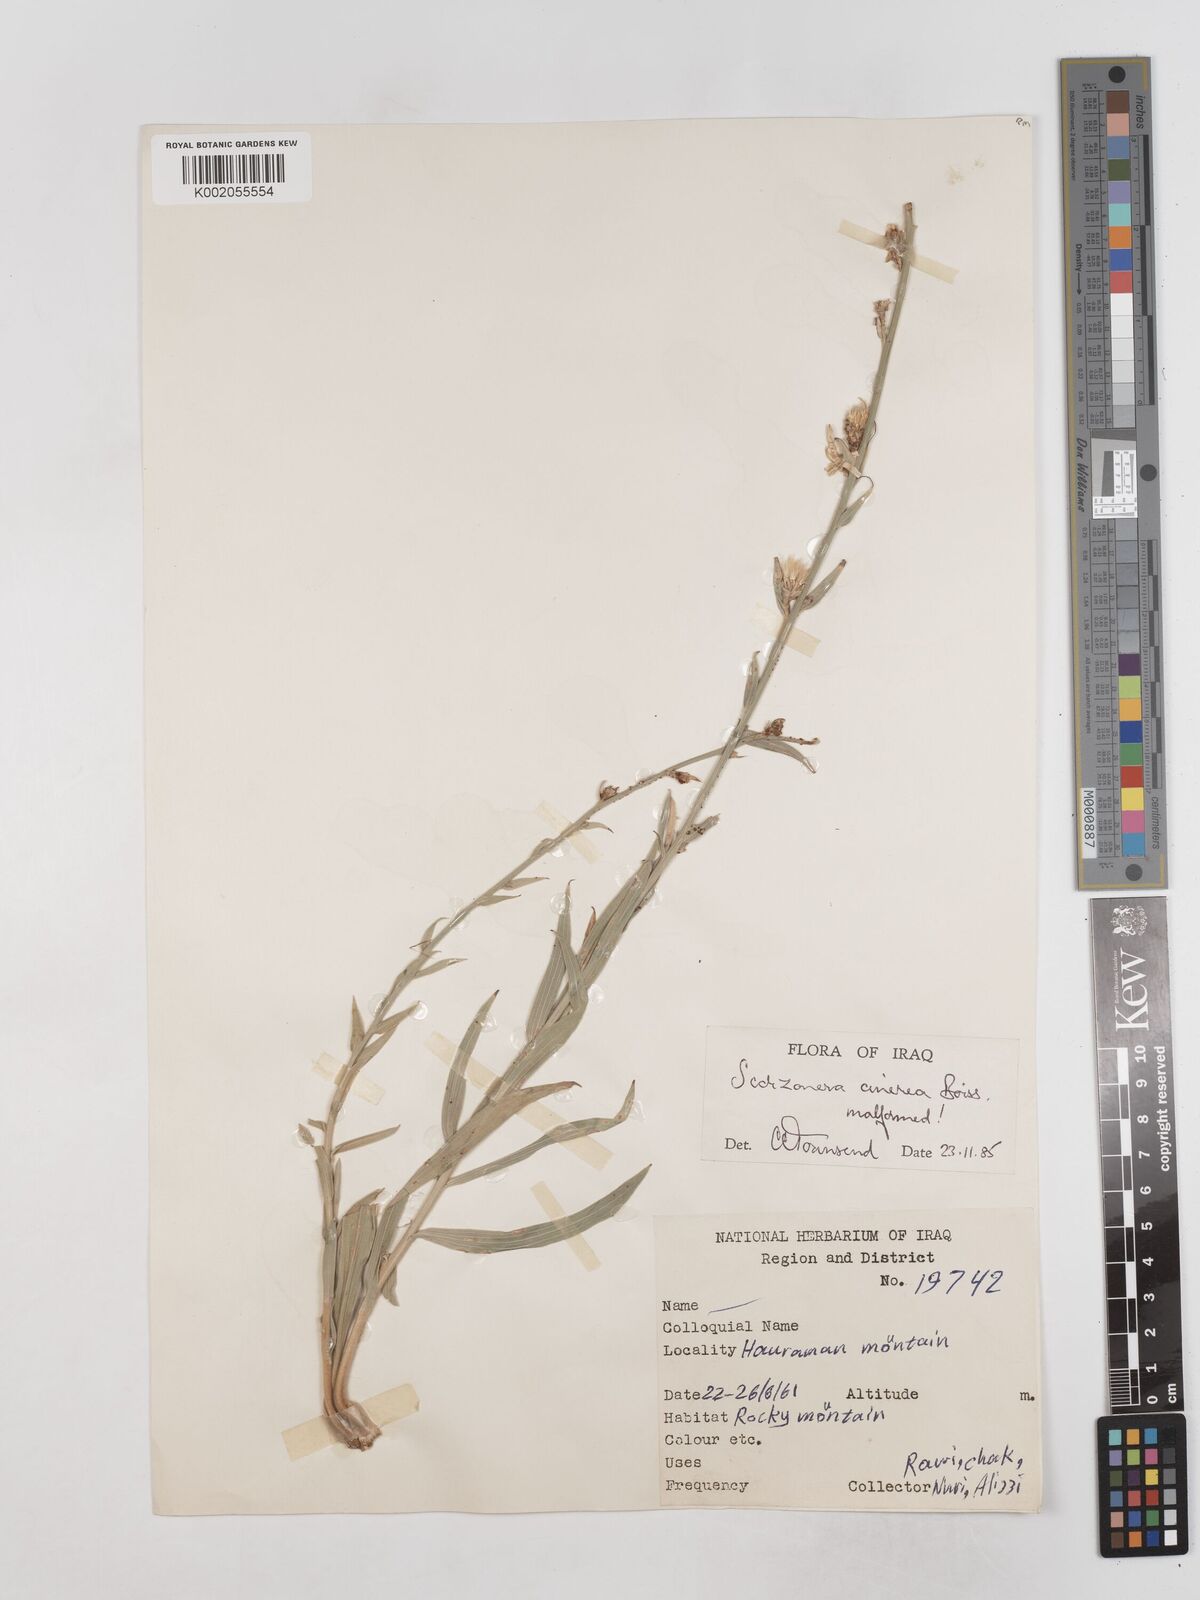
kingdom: Plantae
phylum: Tracheophyta
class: Magnoliopsida
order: Asterales
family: Asteraceae
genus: Cigdemia
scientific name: Cigdemia cinerea
